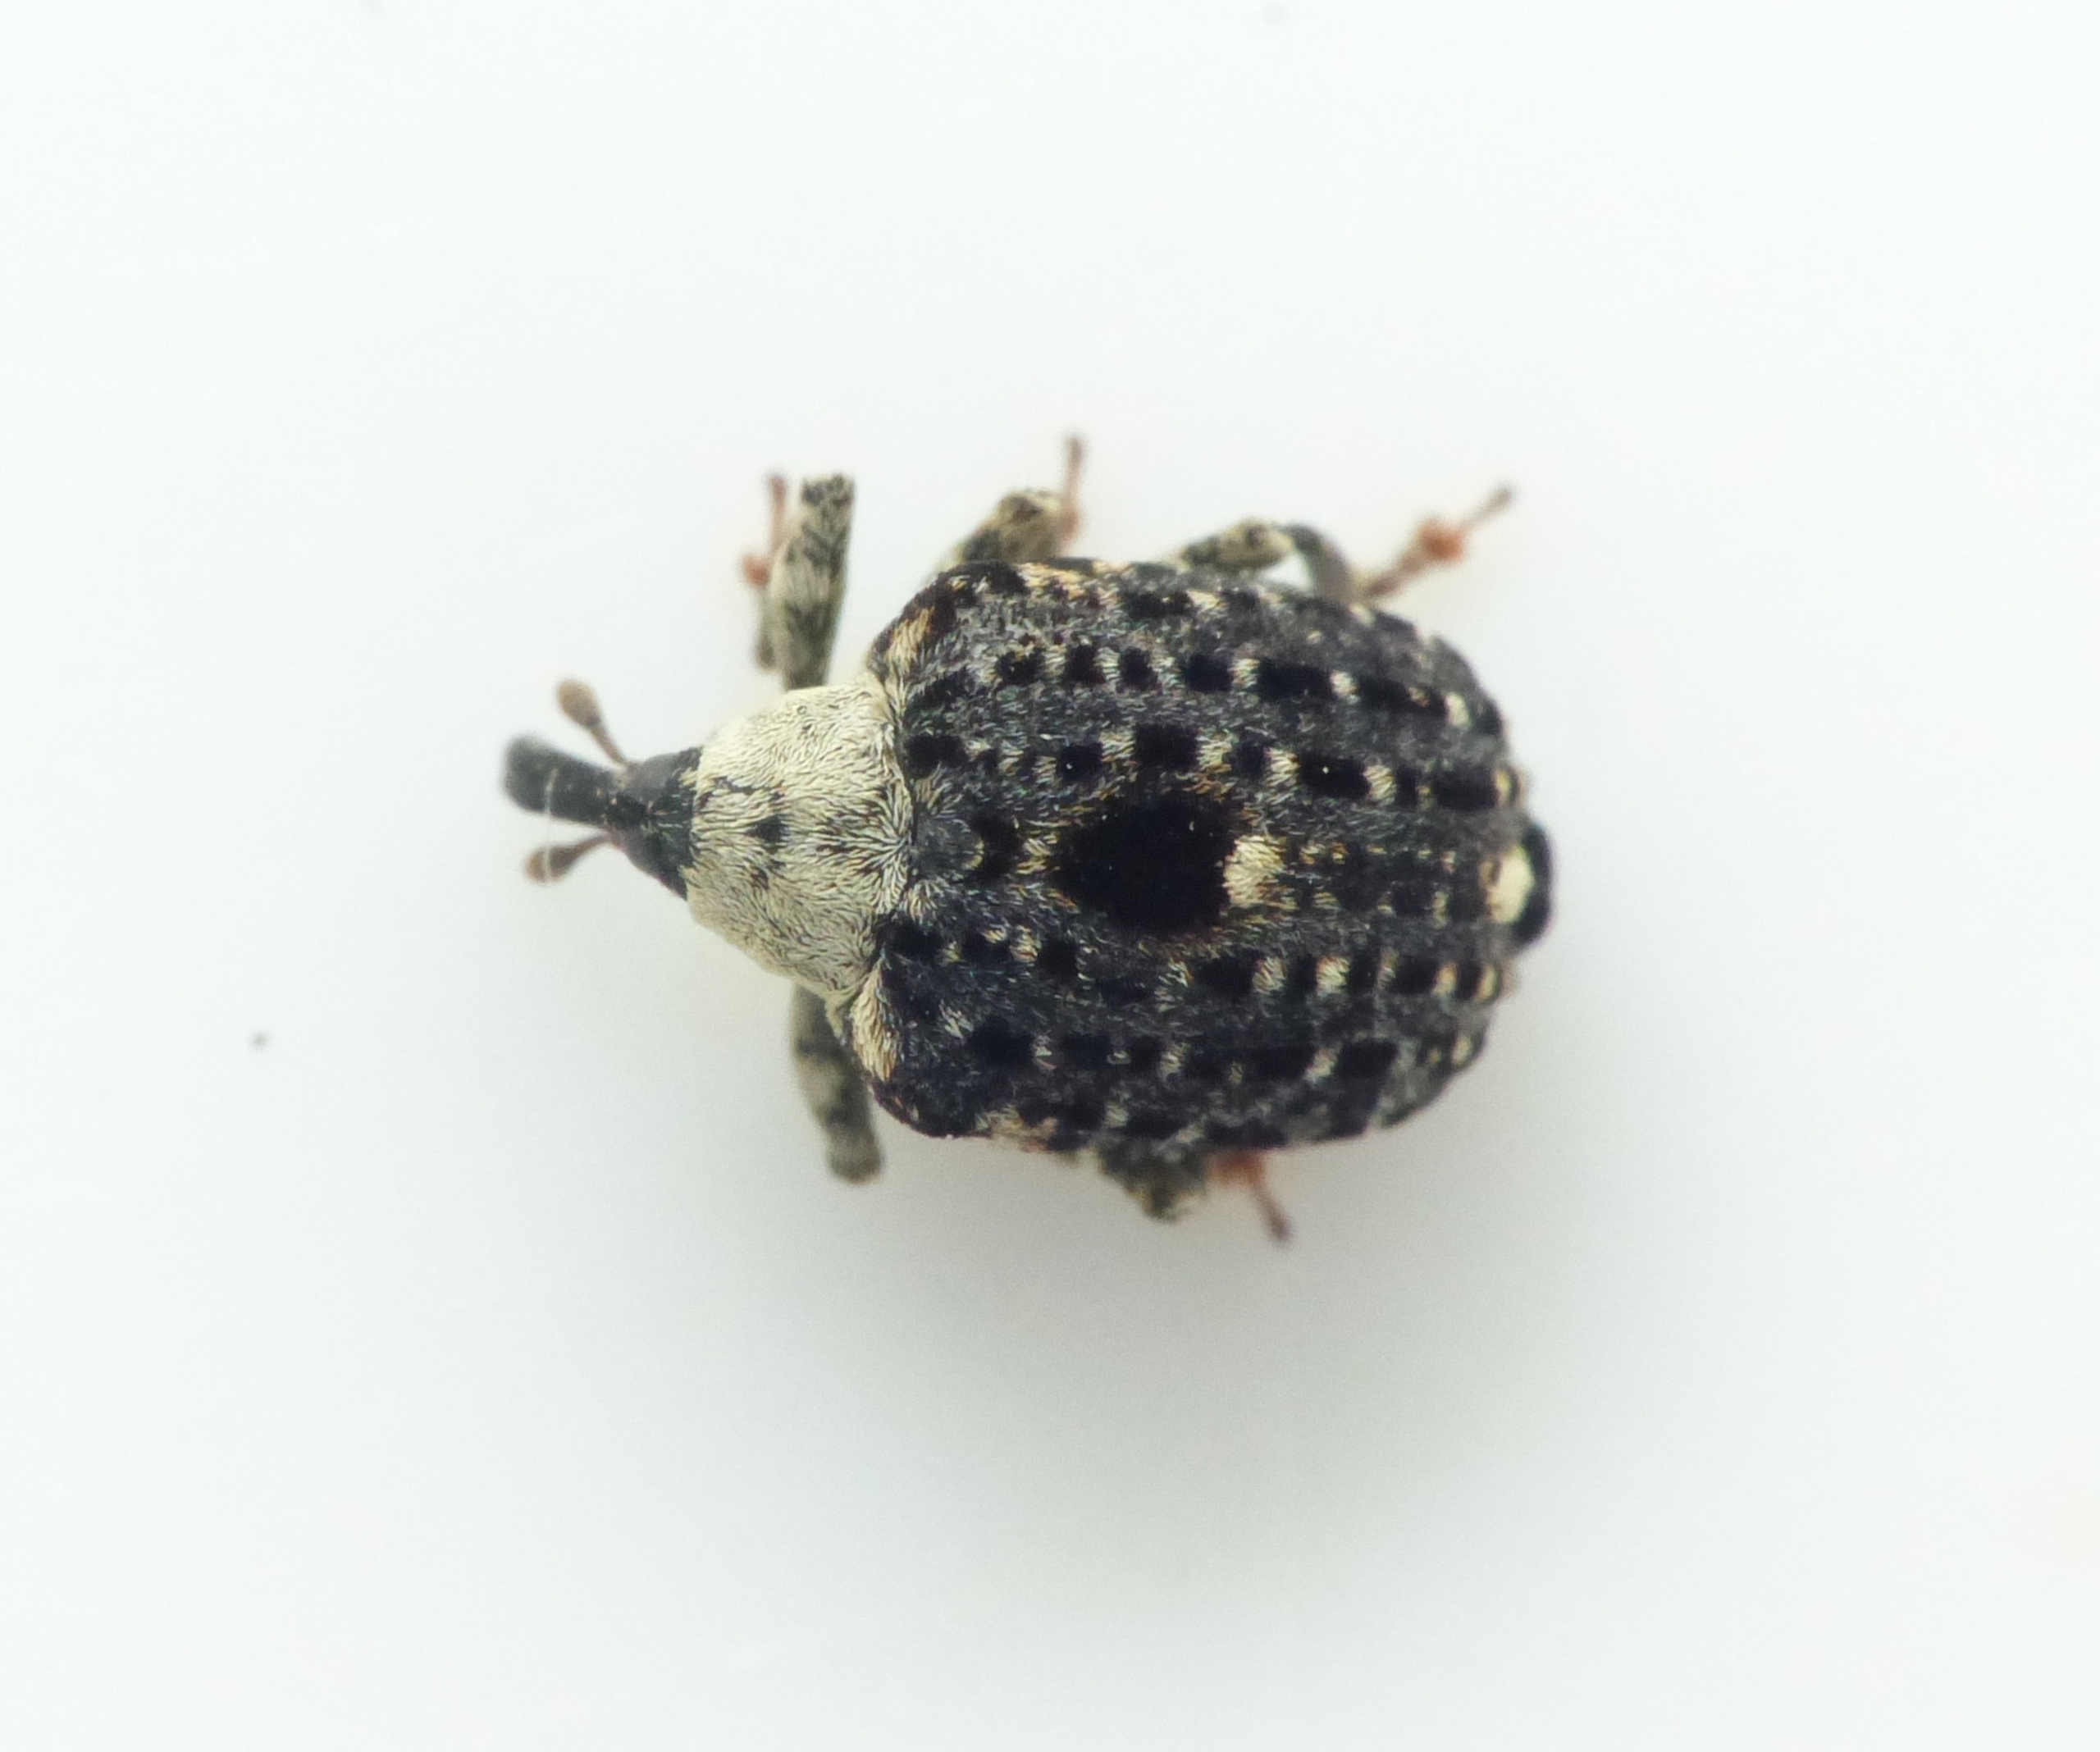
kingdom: Animalia
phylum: Arthropoda
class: Insecta
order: Coleoptera
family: Curculionidae
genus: Cionus
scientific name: Cionus scrophulariae
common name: Brunrodsnudebille
